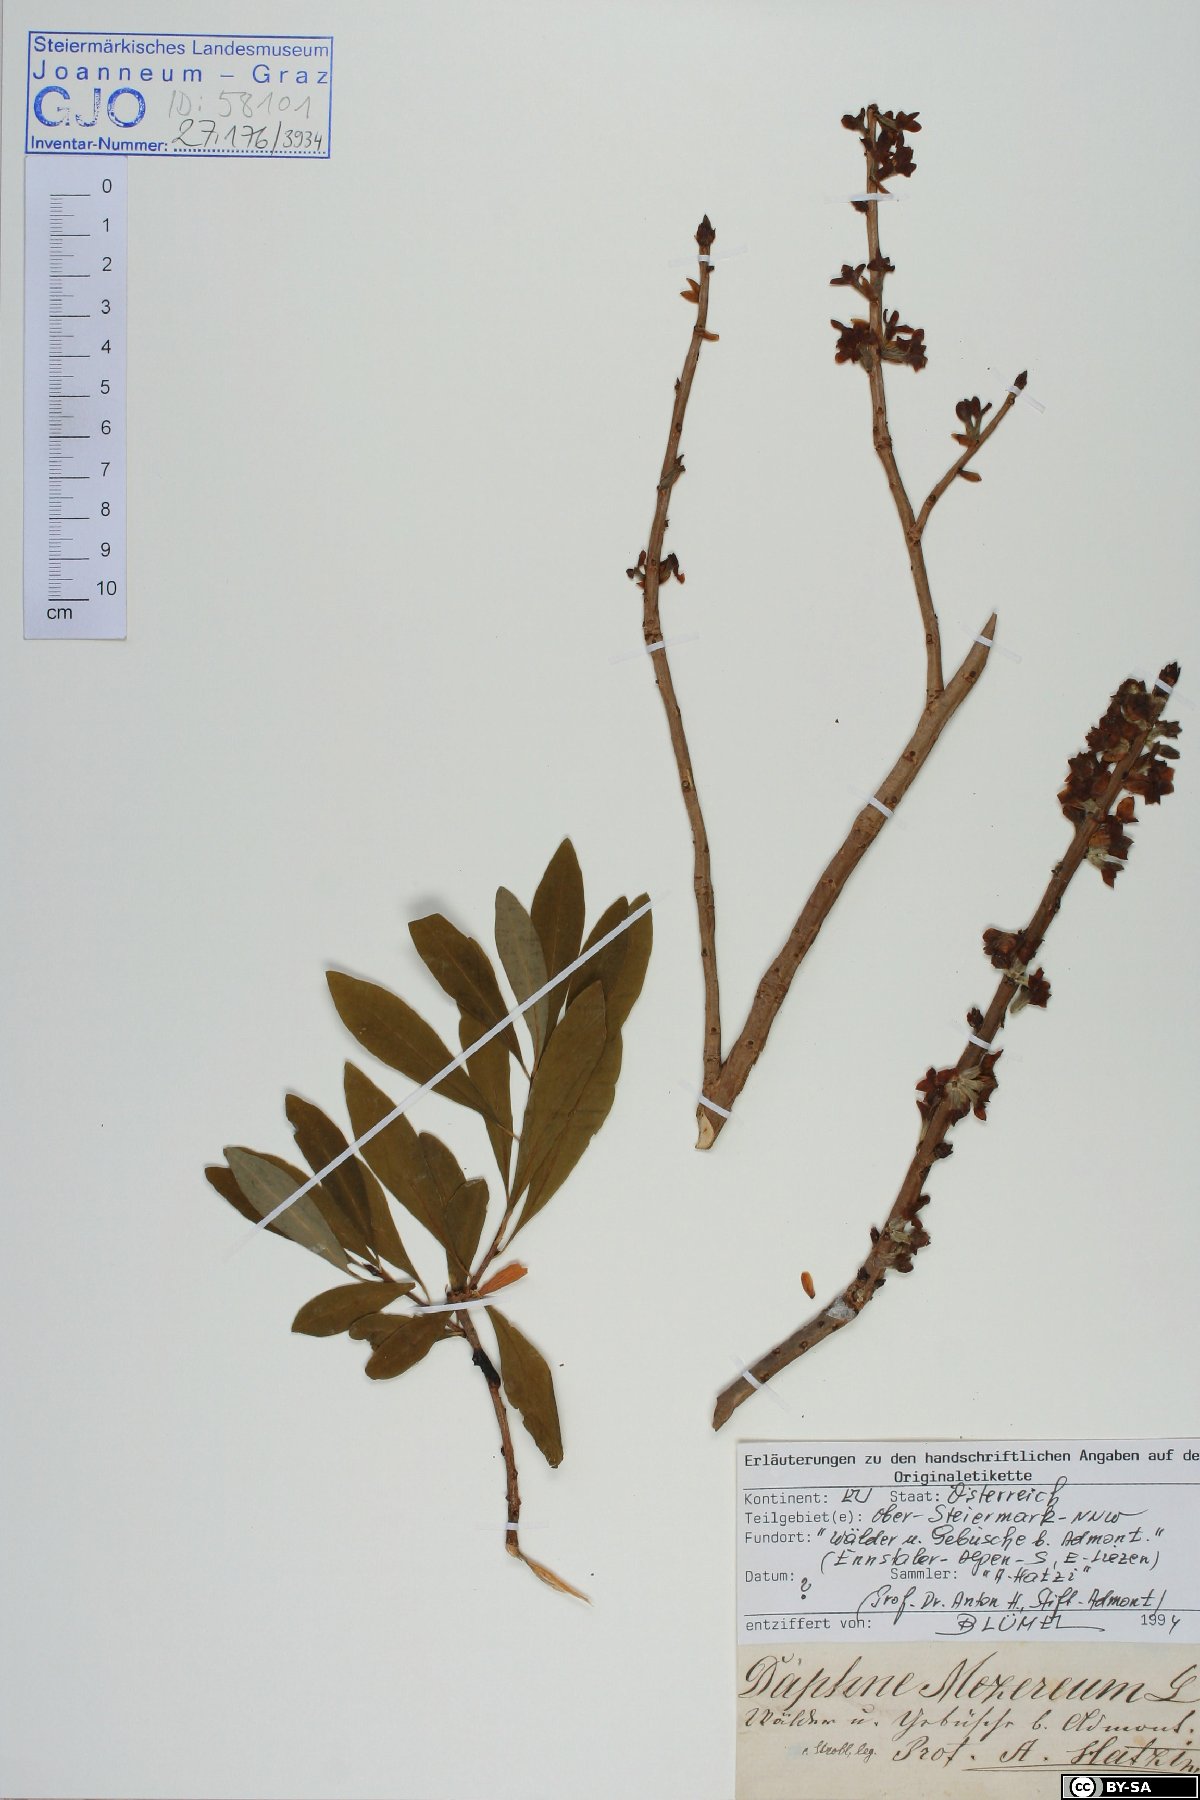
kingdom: Plantae
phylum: Tracheophyta
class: Magnoliopsida
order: Malvales
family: Thymelaeaceae
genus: Daphne
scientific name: Daphne mezereum
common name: Mezereon
